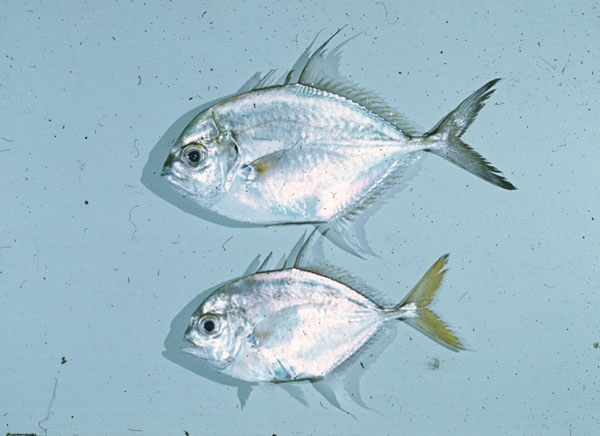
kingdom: Animalia
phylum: Chordata
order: Perciformes
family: Carangidae
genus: Carangoides
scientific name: Carangoides armatus
